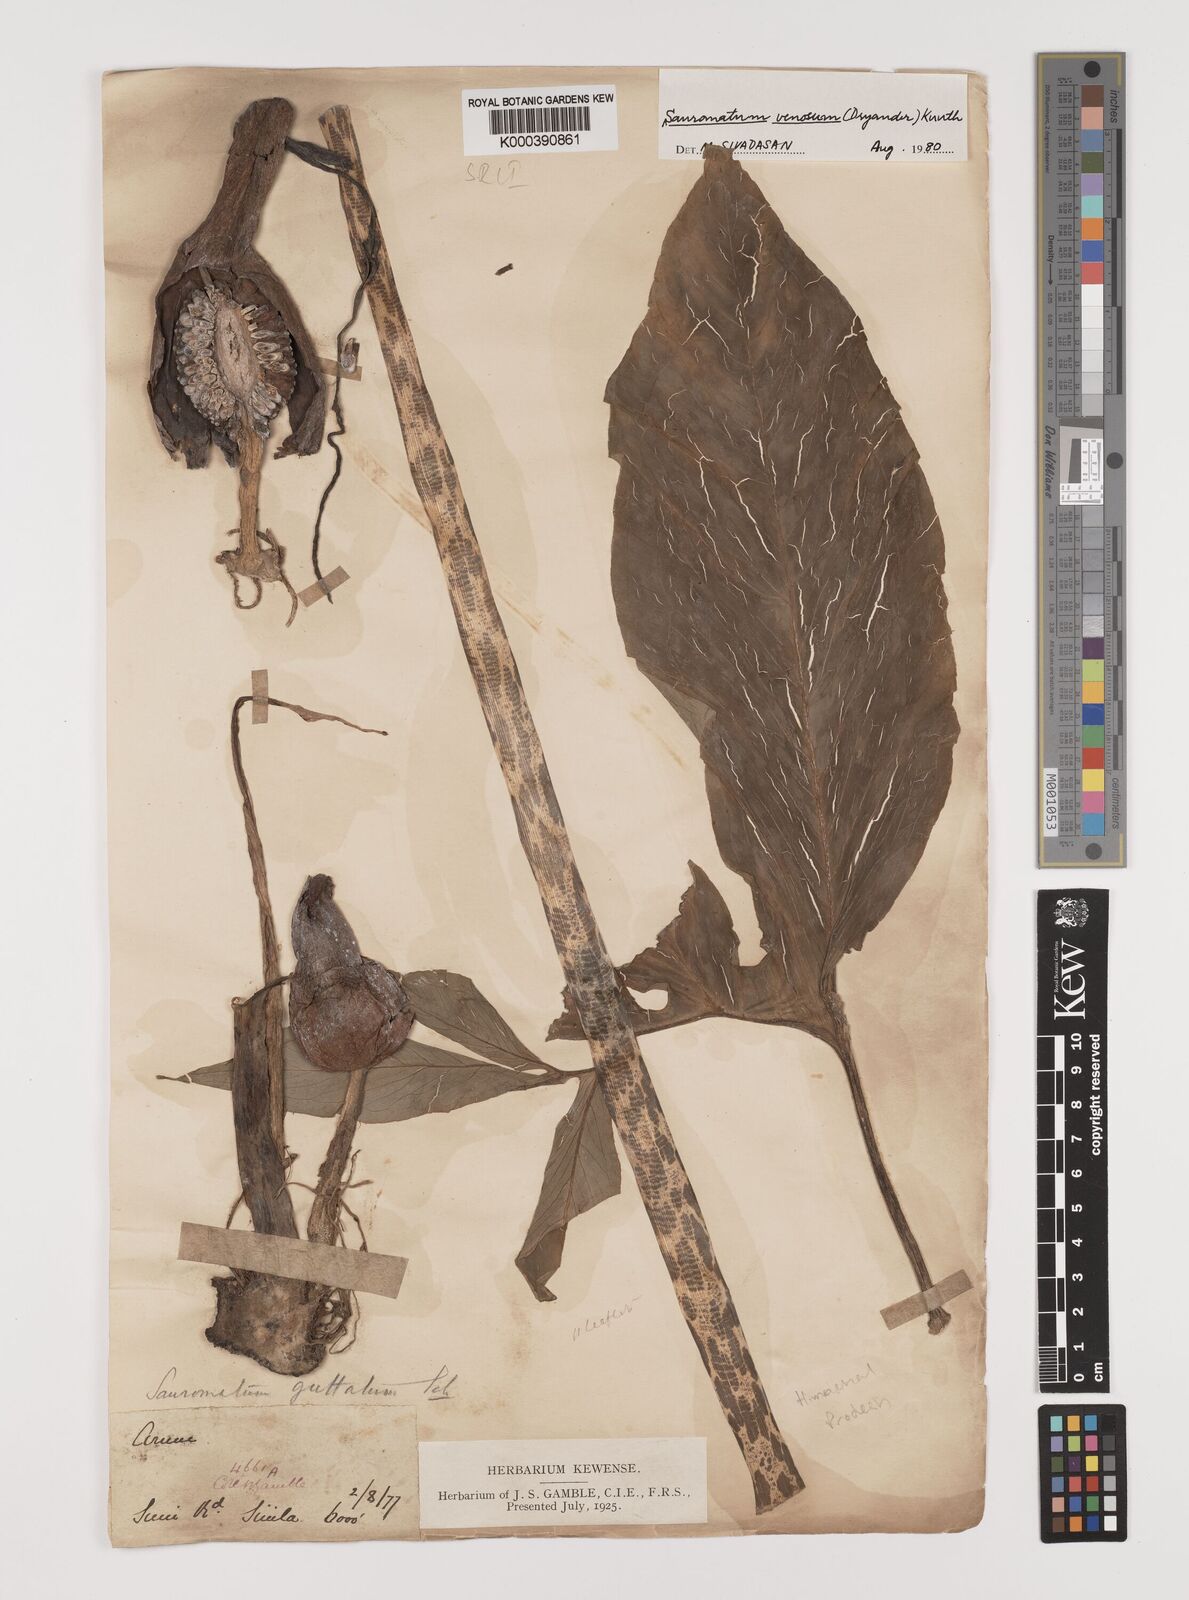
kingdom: Plantae
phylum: Tracheophyta
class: Liliopsida
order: Alismatales
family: Araceae
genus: Sauromatum
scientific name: Sauromatum venosum
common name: Voodoo lily
